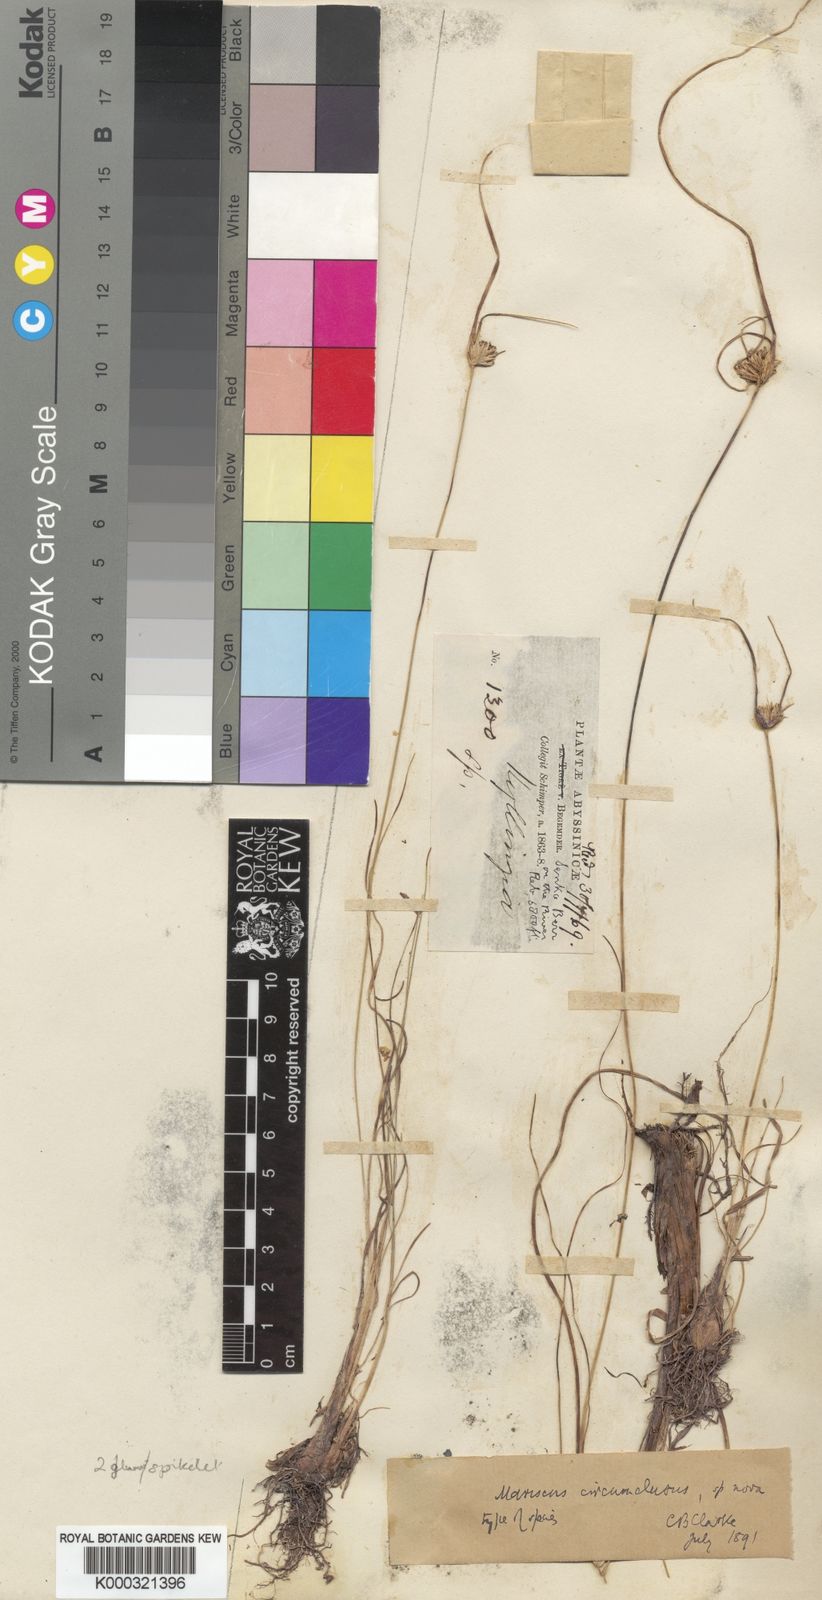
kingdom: Plantae
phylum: Tracheophyta
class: Liliopsida
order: Poales
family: Cyperaceae
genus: Cyperus
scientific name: Cyperus
